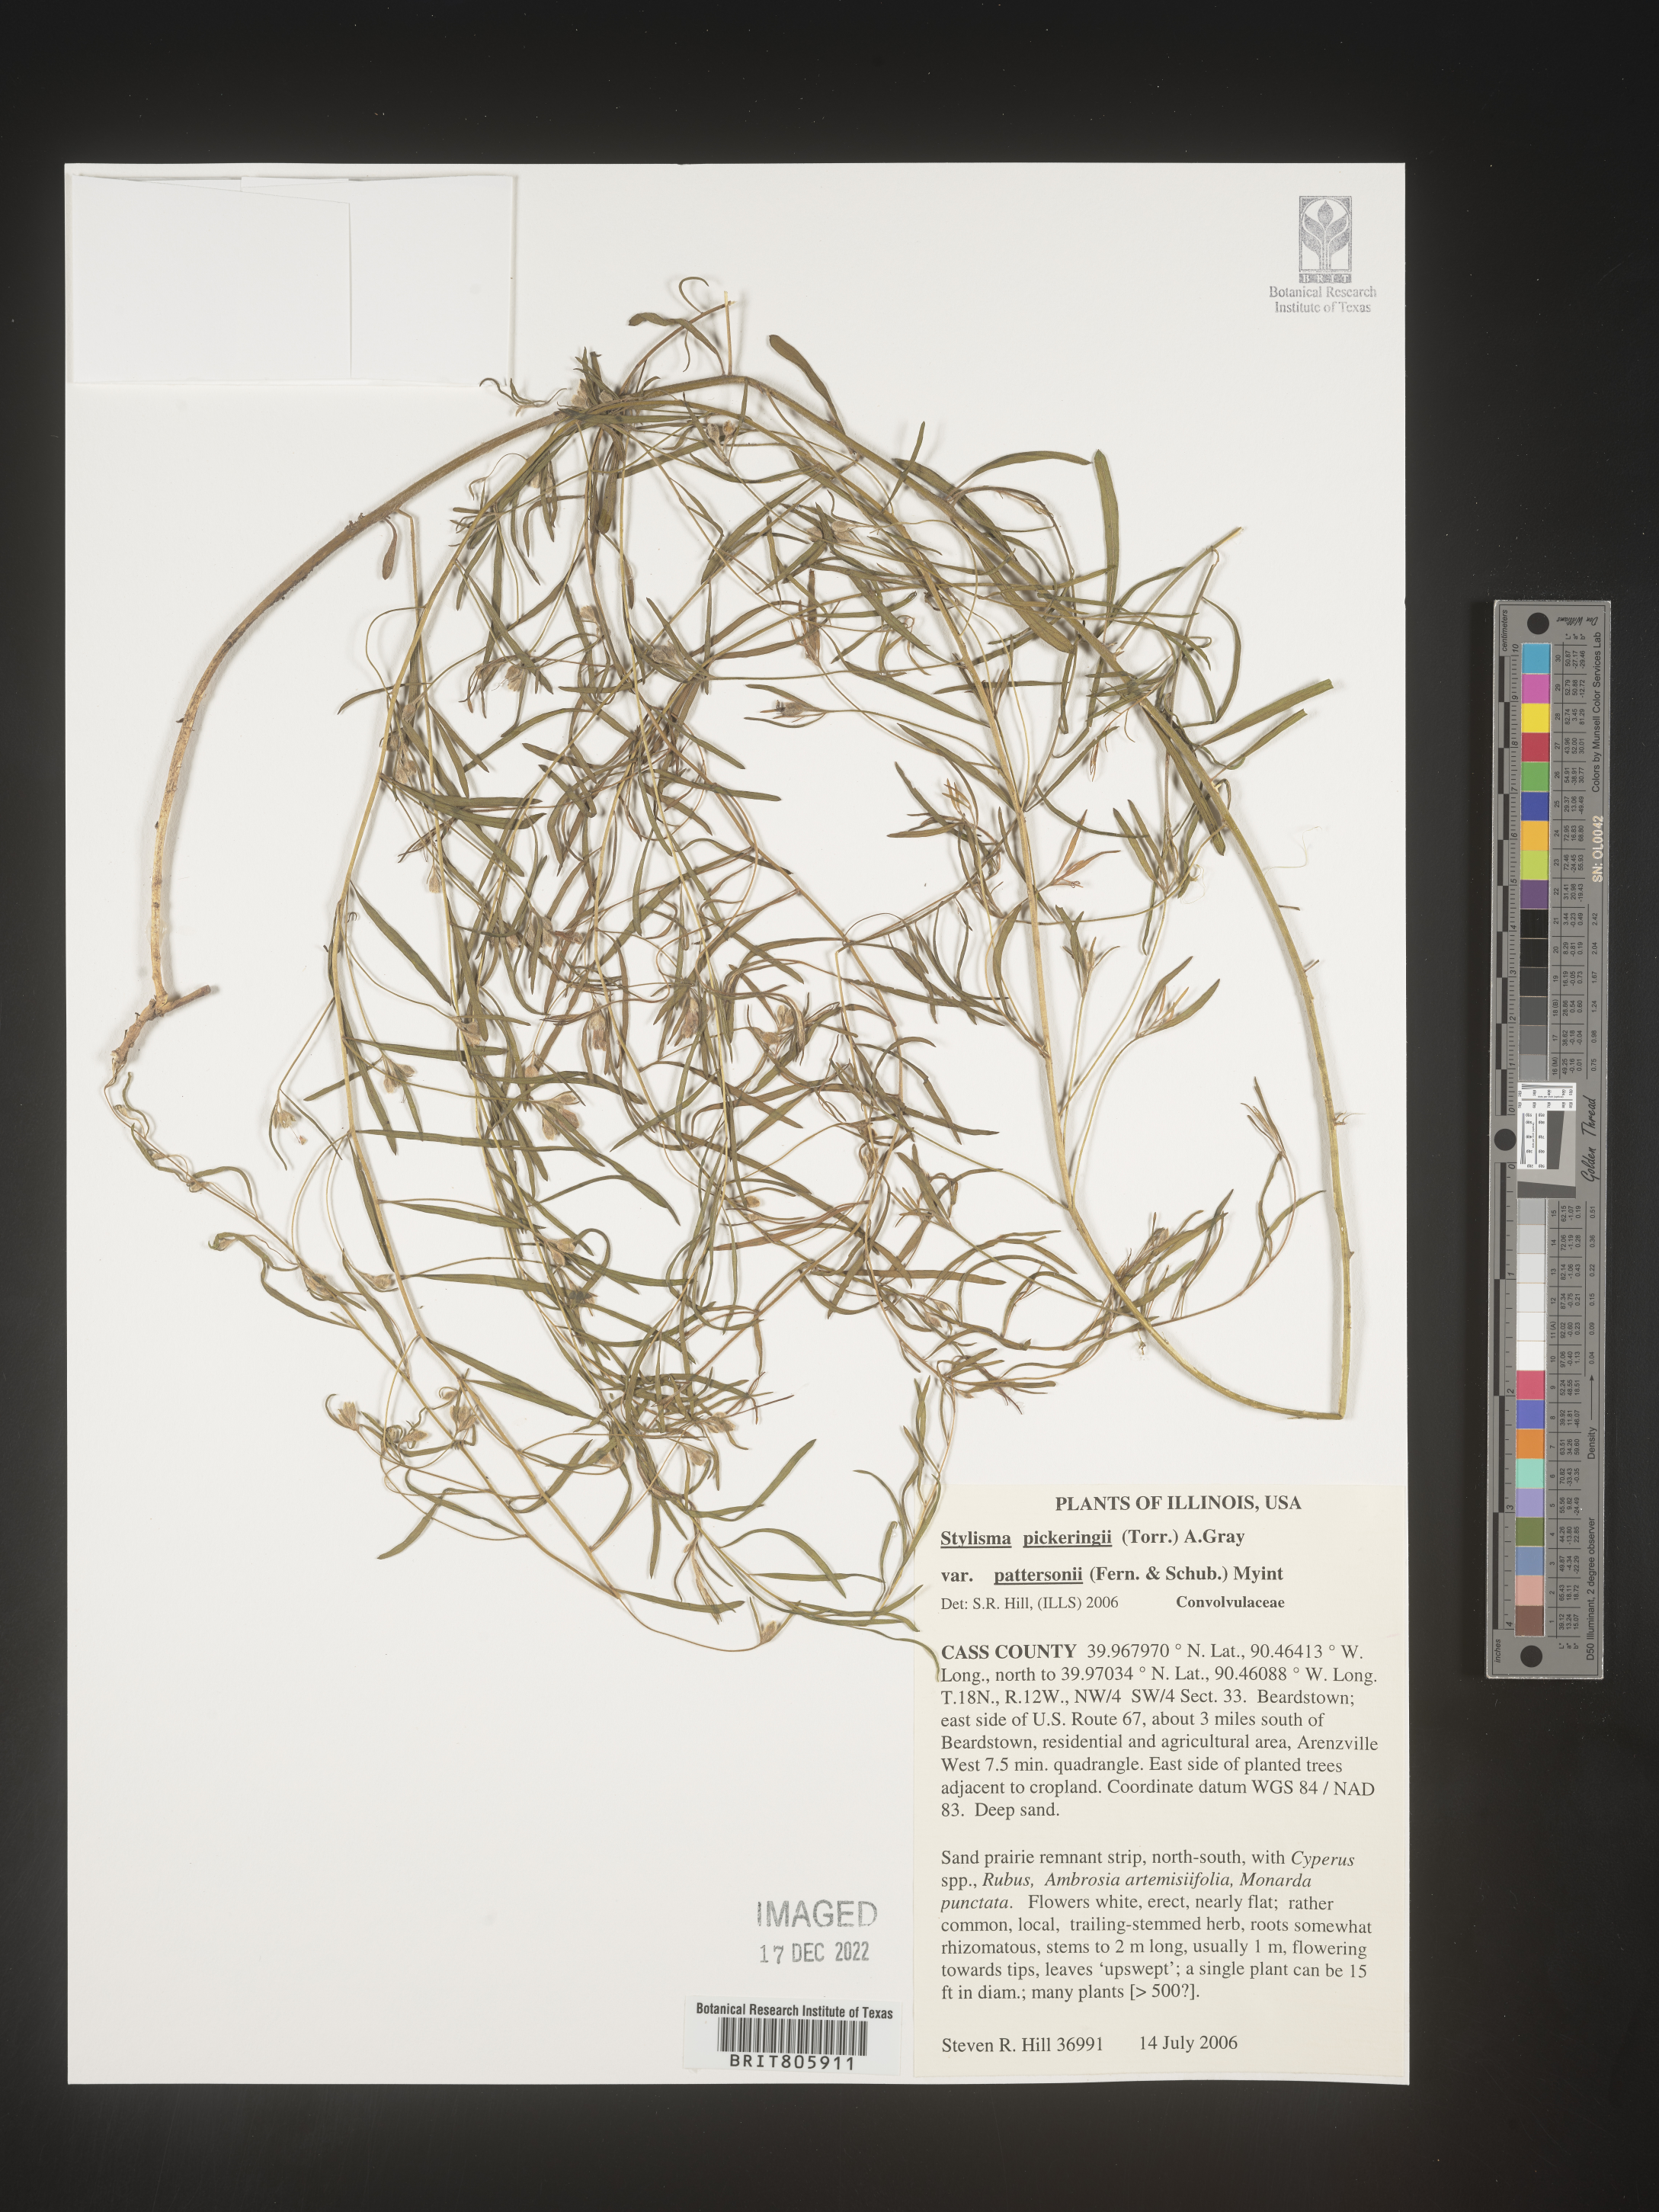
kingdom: Plantae
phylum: Tracheophyta
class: Magnoliopsida
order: Solanales
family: Convolvulaceae
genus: Stylisma
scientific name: Stylisma
